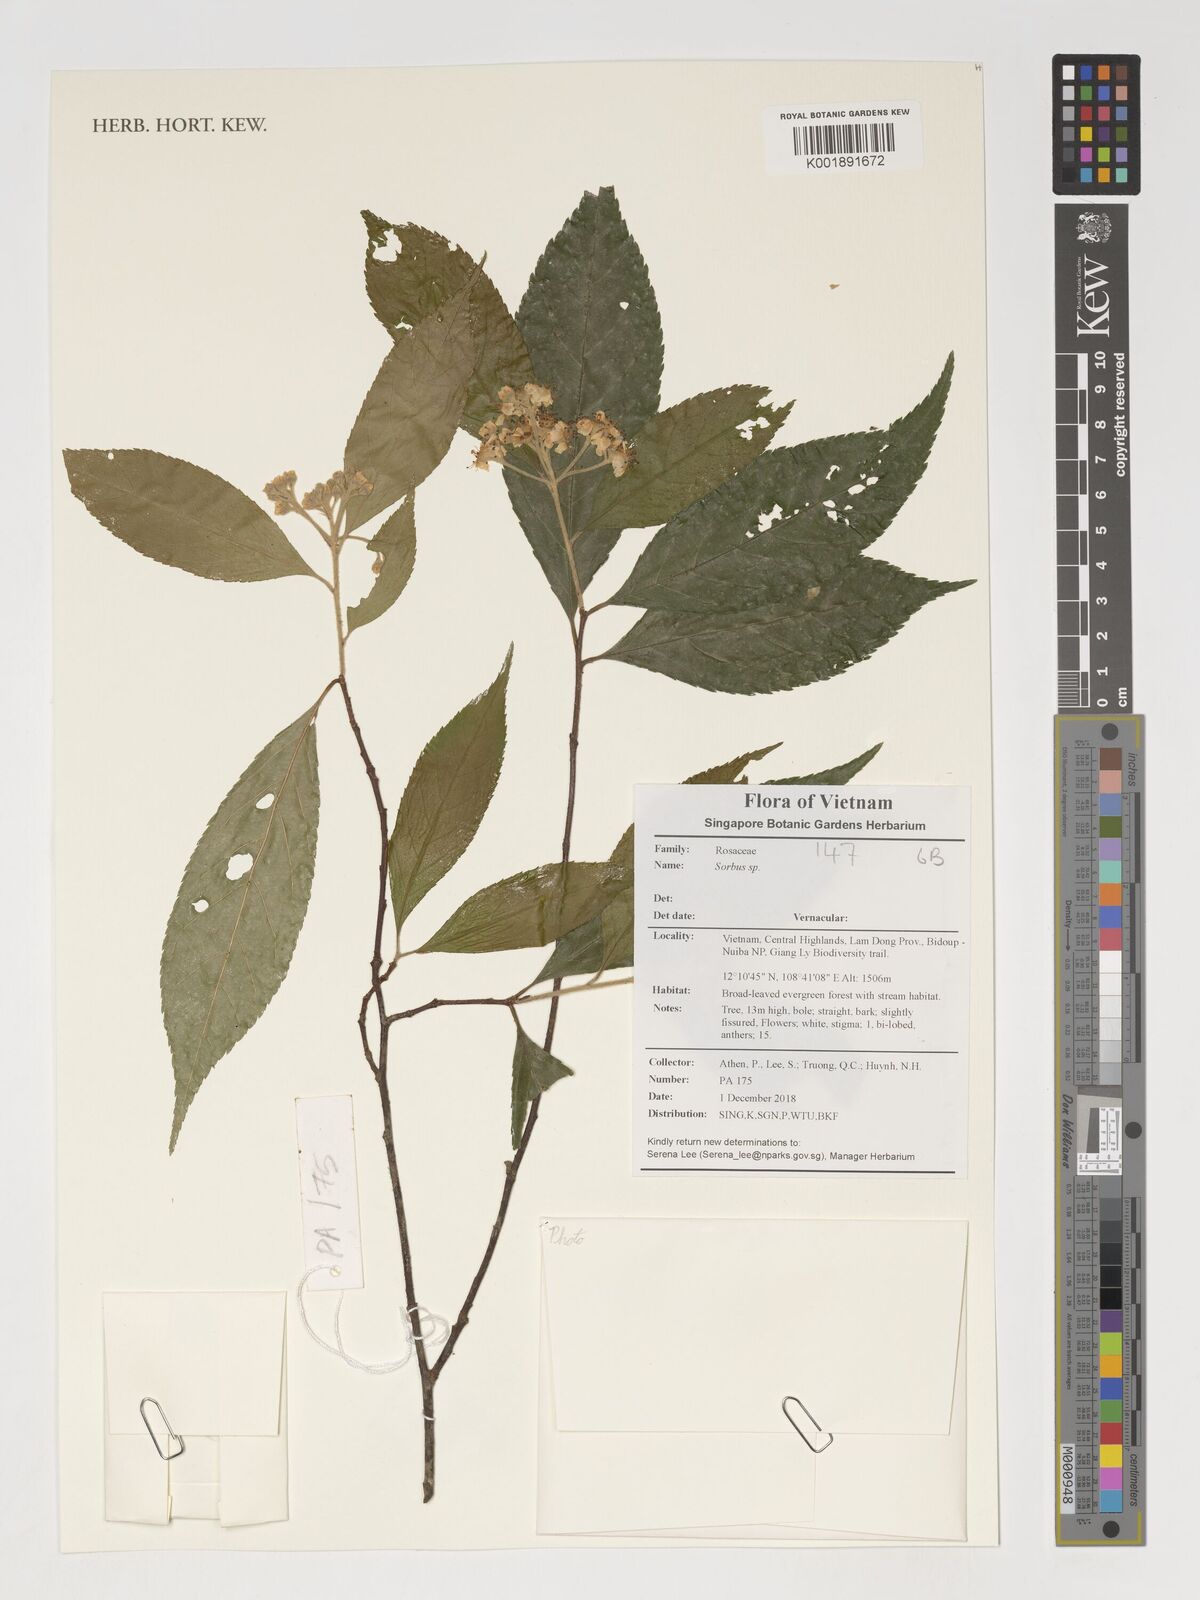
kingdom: Plantae
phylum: Tracheophyta
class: Magnoliopsida
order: Rosales
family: Rosaceae
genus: Sorbus
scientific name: Sorbus
